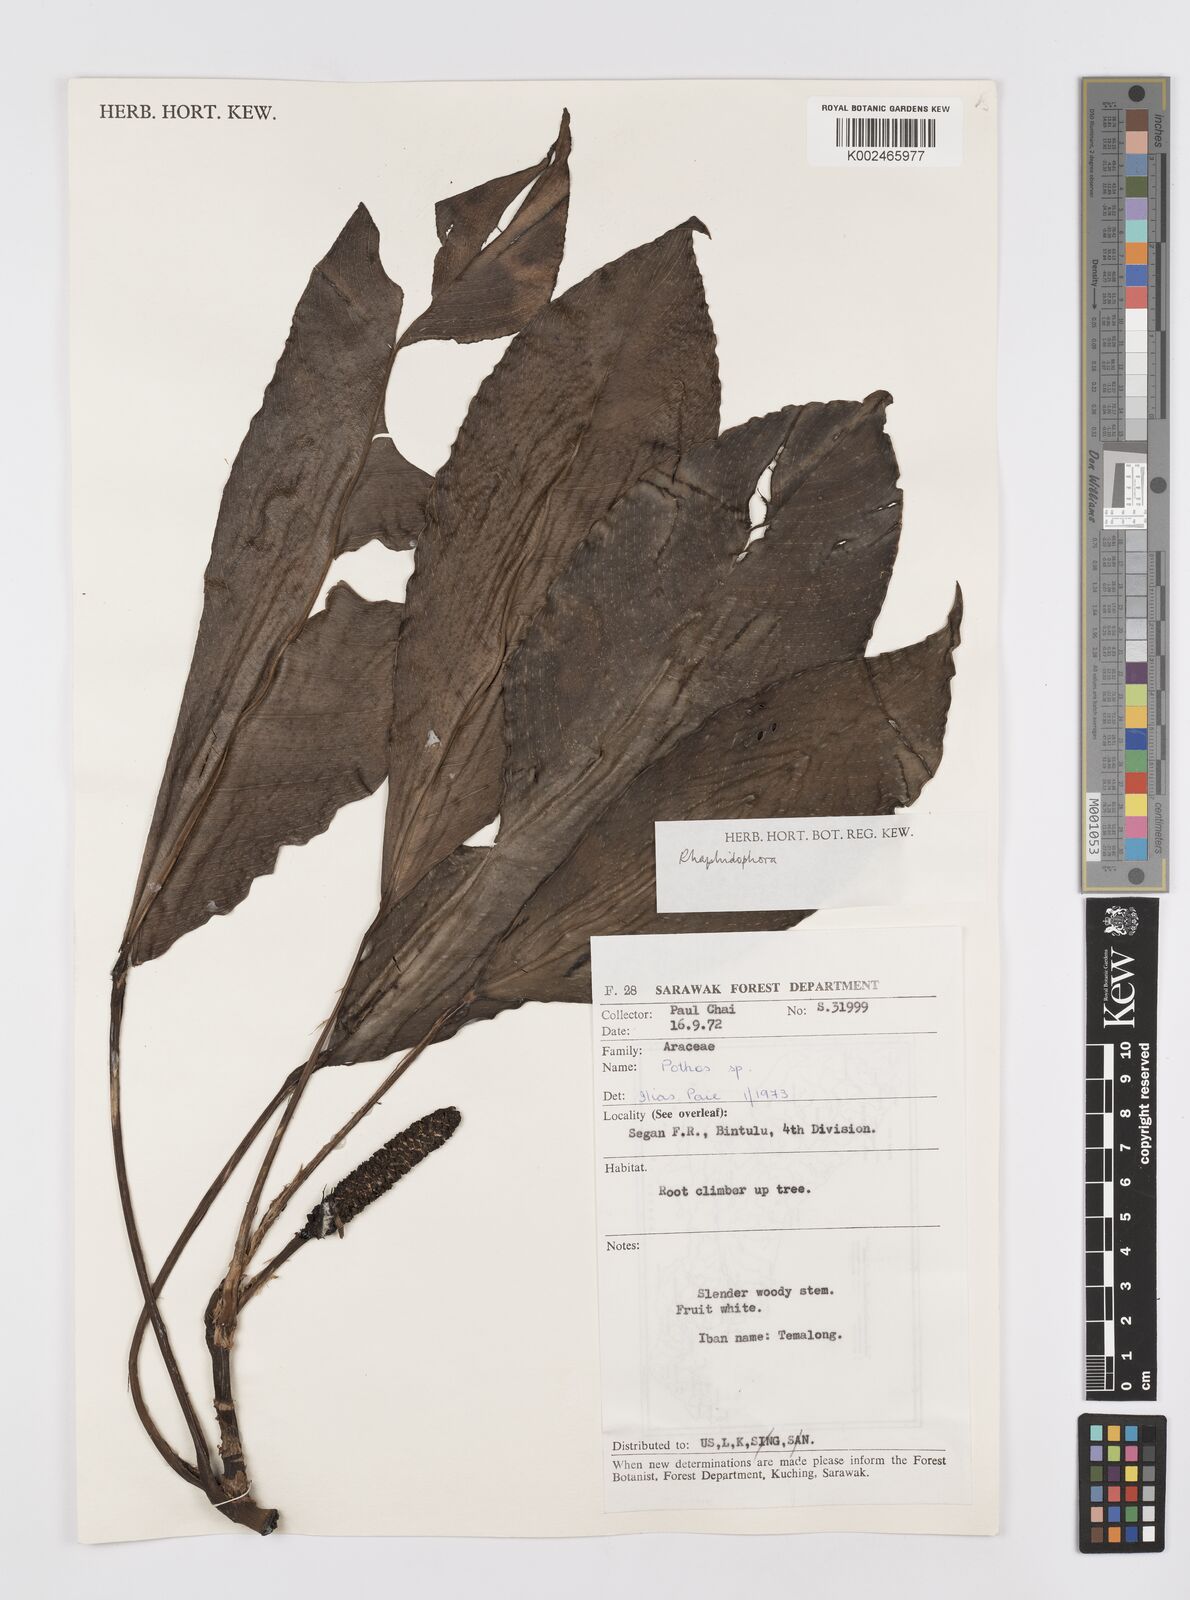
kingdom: Plantae
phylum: Tracheophyta
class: Liliopsida
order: Alismatales
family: Araceae
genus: Rhaphidophora
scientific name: Rhaphidophora puberula
